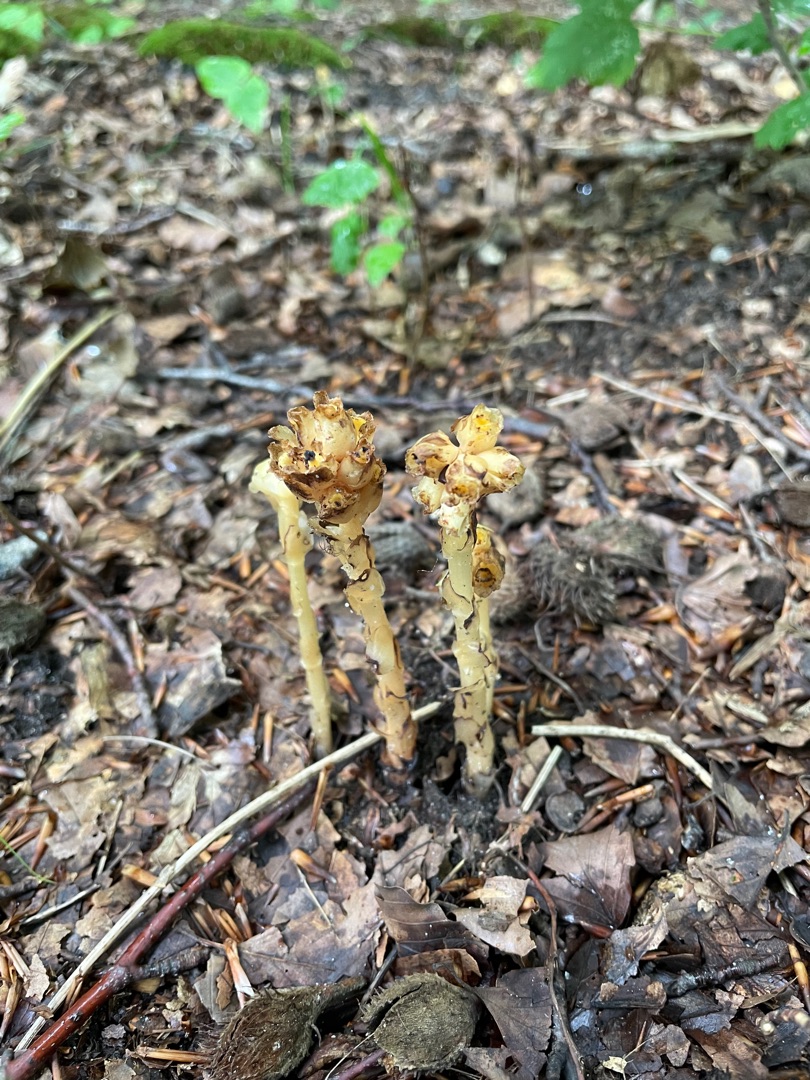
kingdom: Plantae
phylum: Tracheophyta
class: Magnoliopsida
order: Ericales
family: Ericaceae
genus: Hypopitys
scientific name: Hypopitys monotropa
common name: Snylterod
